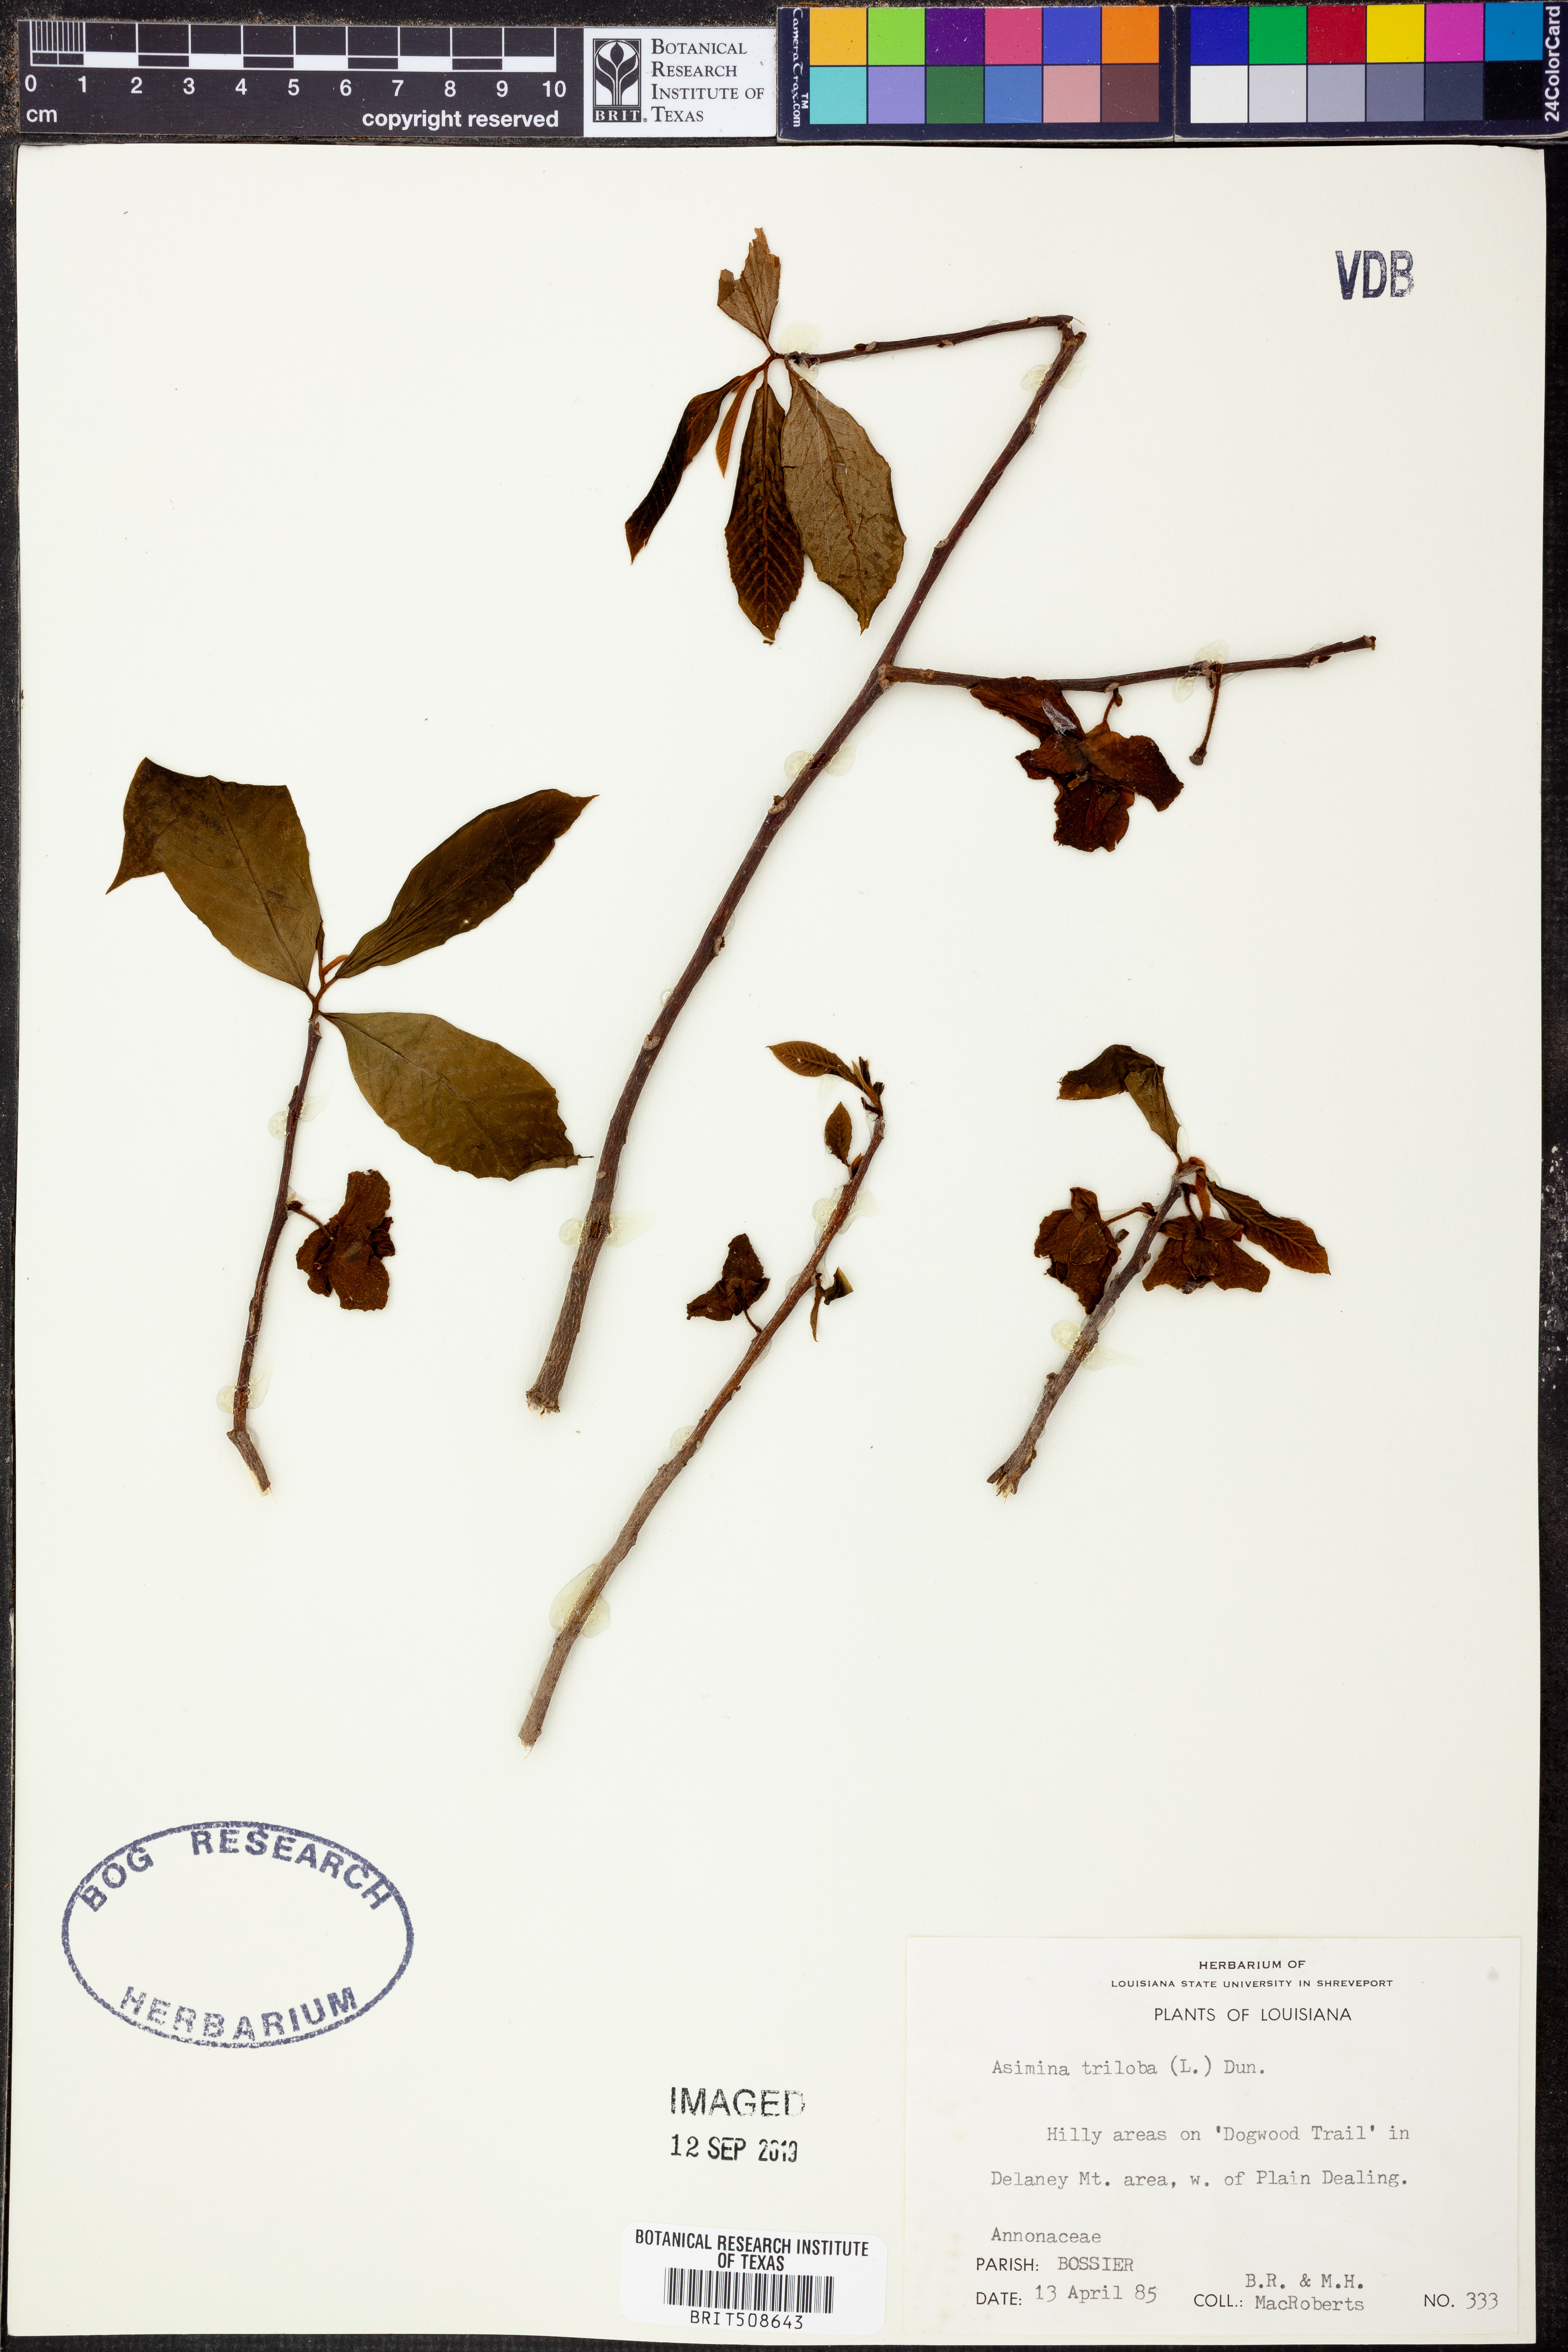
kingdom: Plantae
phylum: Tracheophyta
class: Magnoliopsida
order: Magnoliales
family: Annonaceae
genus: Asimina
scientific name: Asimina triloba
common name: Dog-banana
